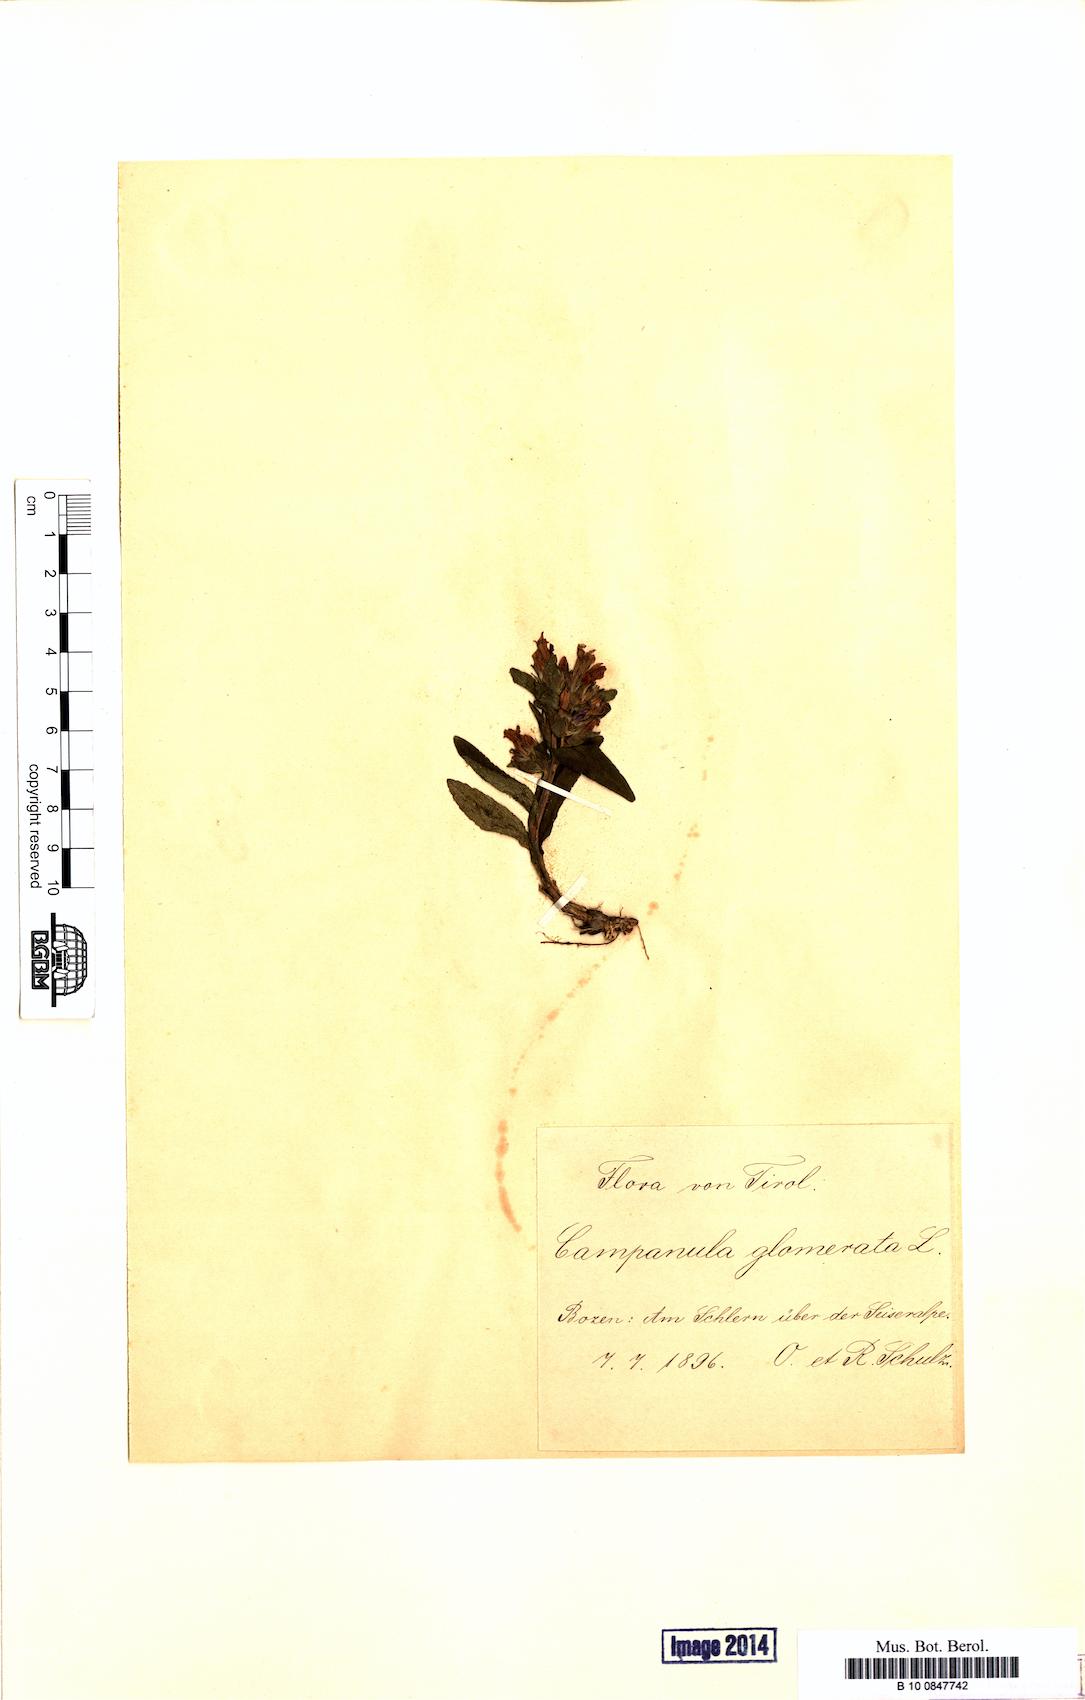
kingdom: Plantae
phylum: Tracheophyta
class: Magnoliopsida
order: Asterales
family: Campanulaceae
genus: Campanula
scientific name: Campanula glomerata
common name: Clustered bellflower
